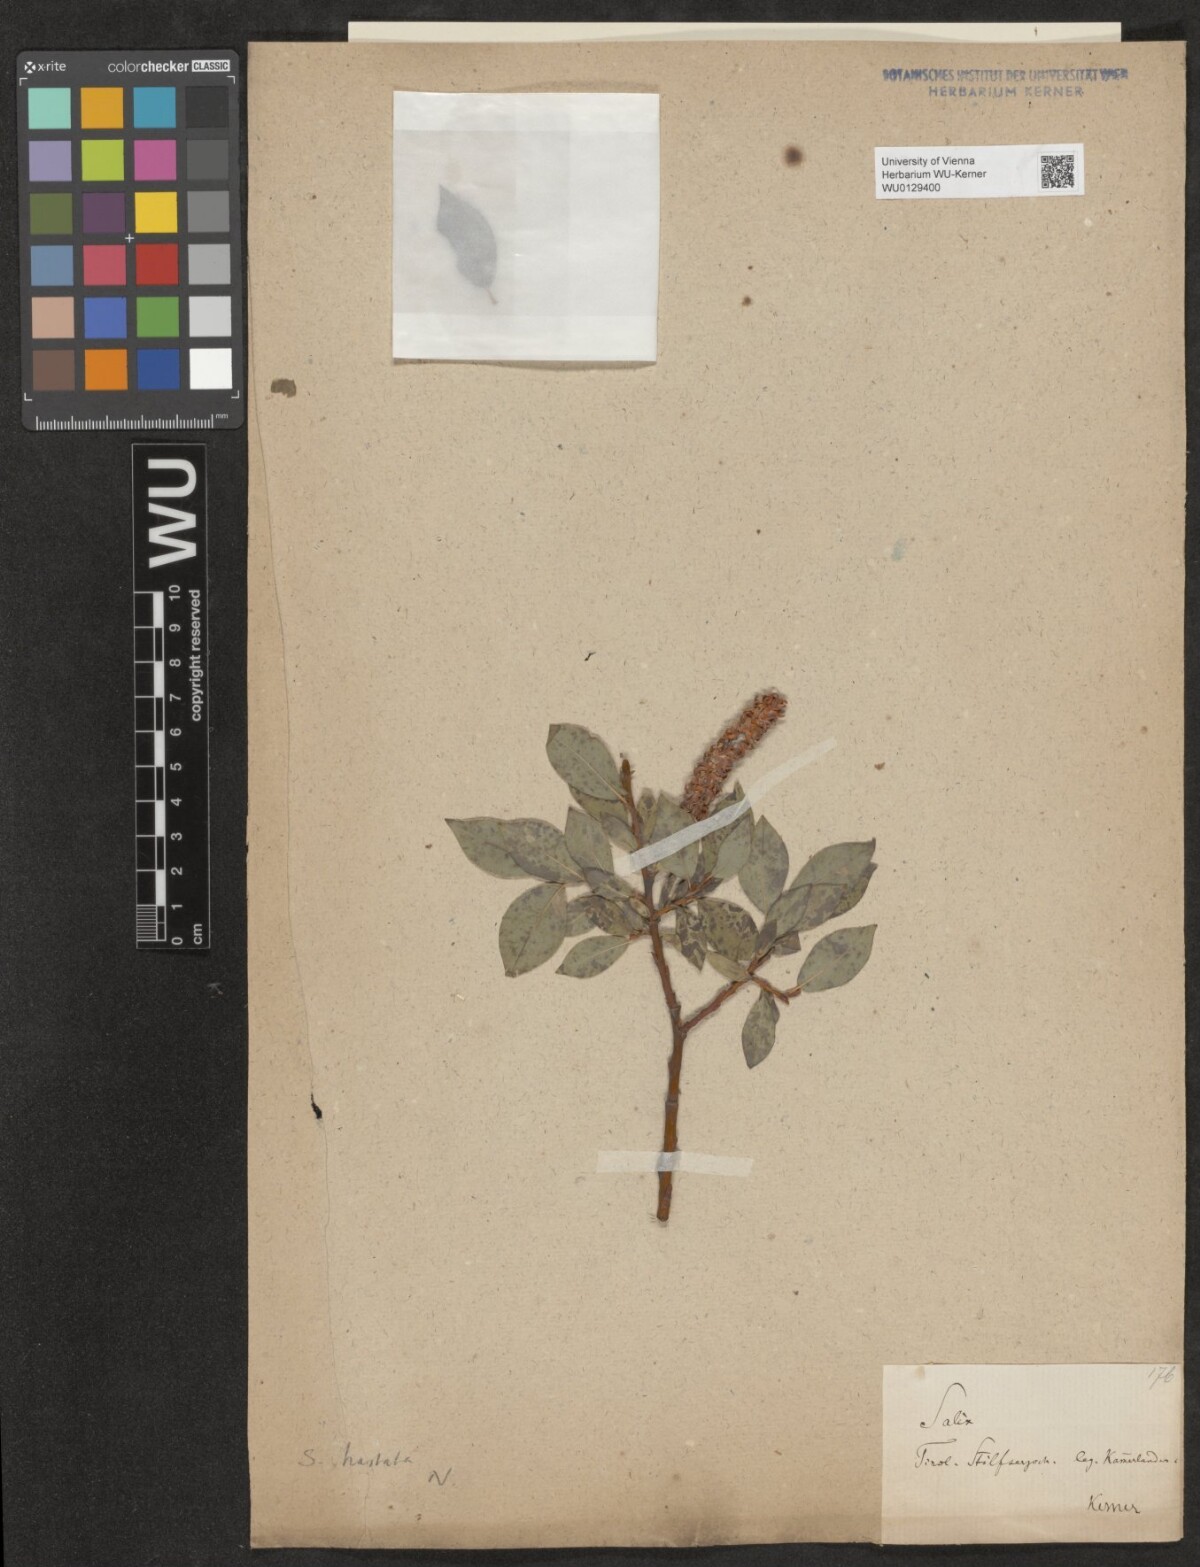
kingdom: Plantae
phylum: Tracheophyta
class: Magnoliopsida
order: Malpighiales
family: Salicaceae
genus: Salix
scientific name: Salix hastata
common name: Halberd willow
